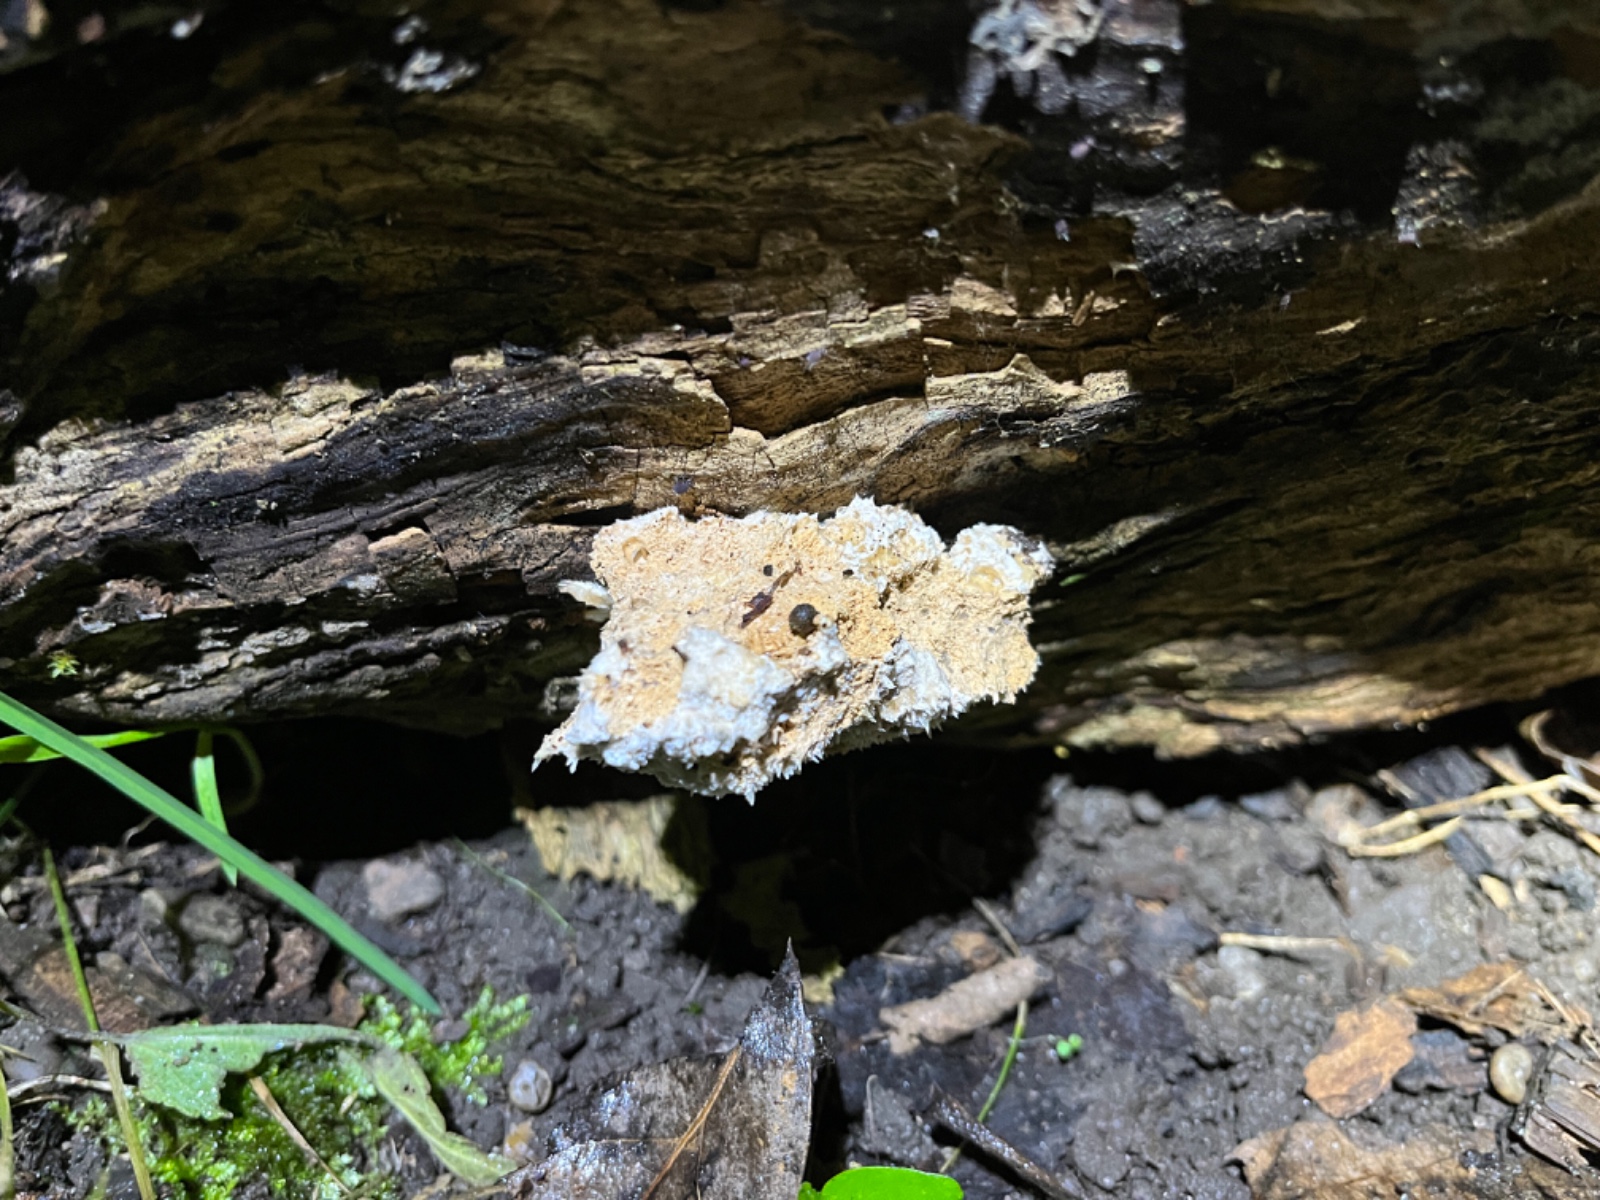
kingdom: Fungi
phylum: Basidiomycota
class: Agaricomycetes
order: Polyporales
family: Dacryobolaceae
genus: Postia
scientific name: Postia ptychogaster
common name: støvende kødporesvamp
